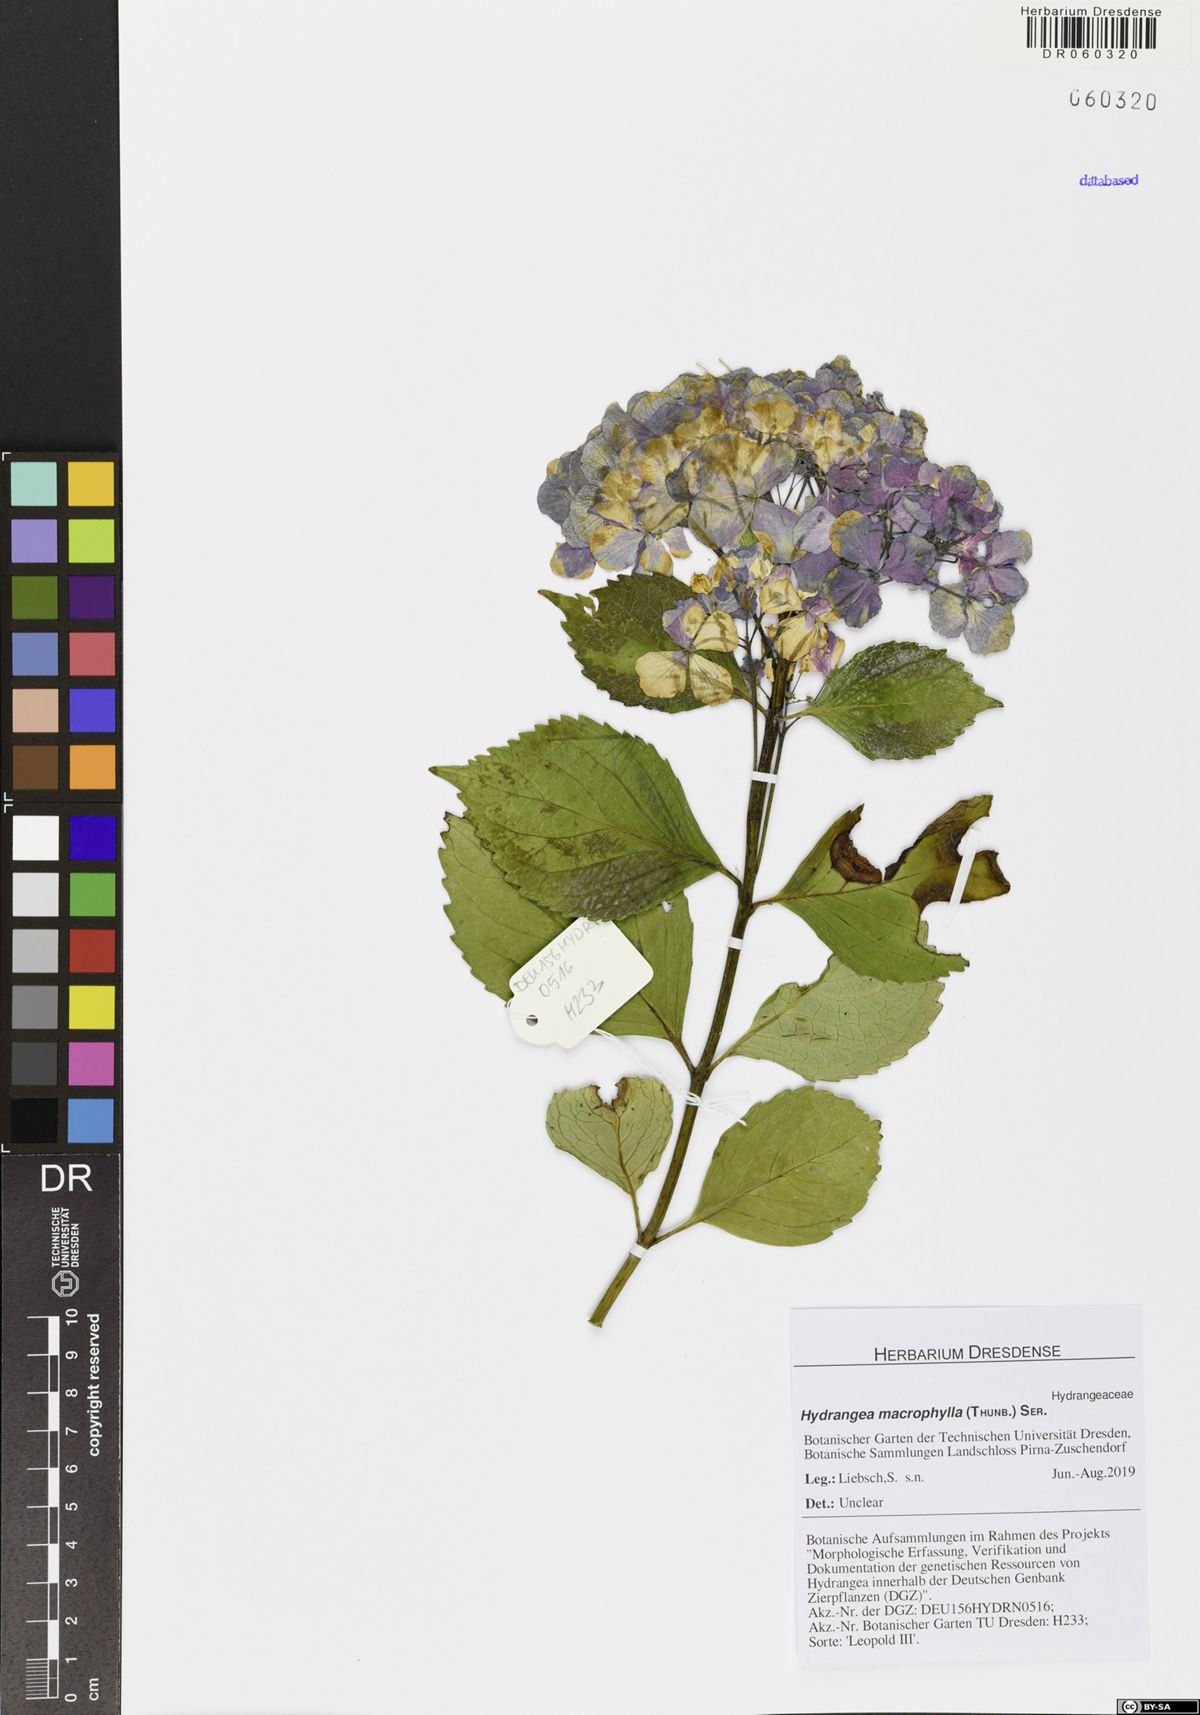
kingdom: Plantae
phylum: Tracheophyta
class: Magnoliopsida
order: Cornales
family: Hydrangeaceae
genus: Hydrangea
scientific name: Hydrangea macrophylla
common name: Hydrangea
